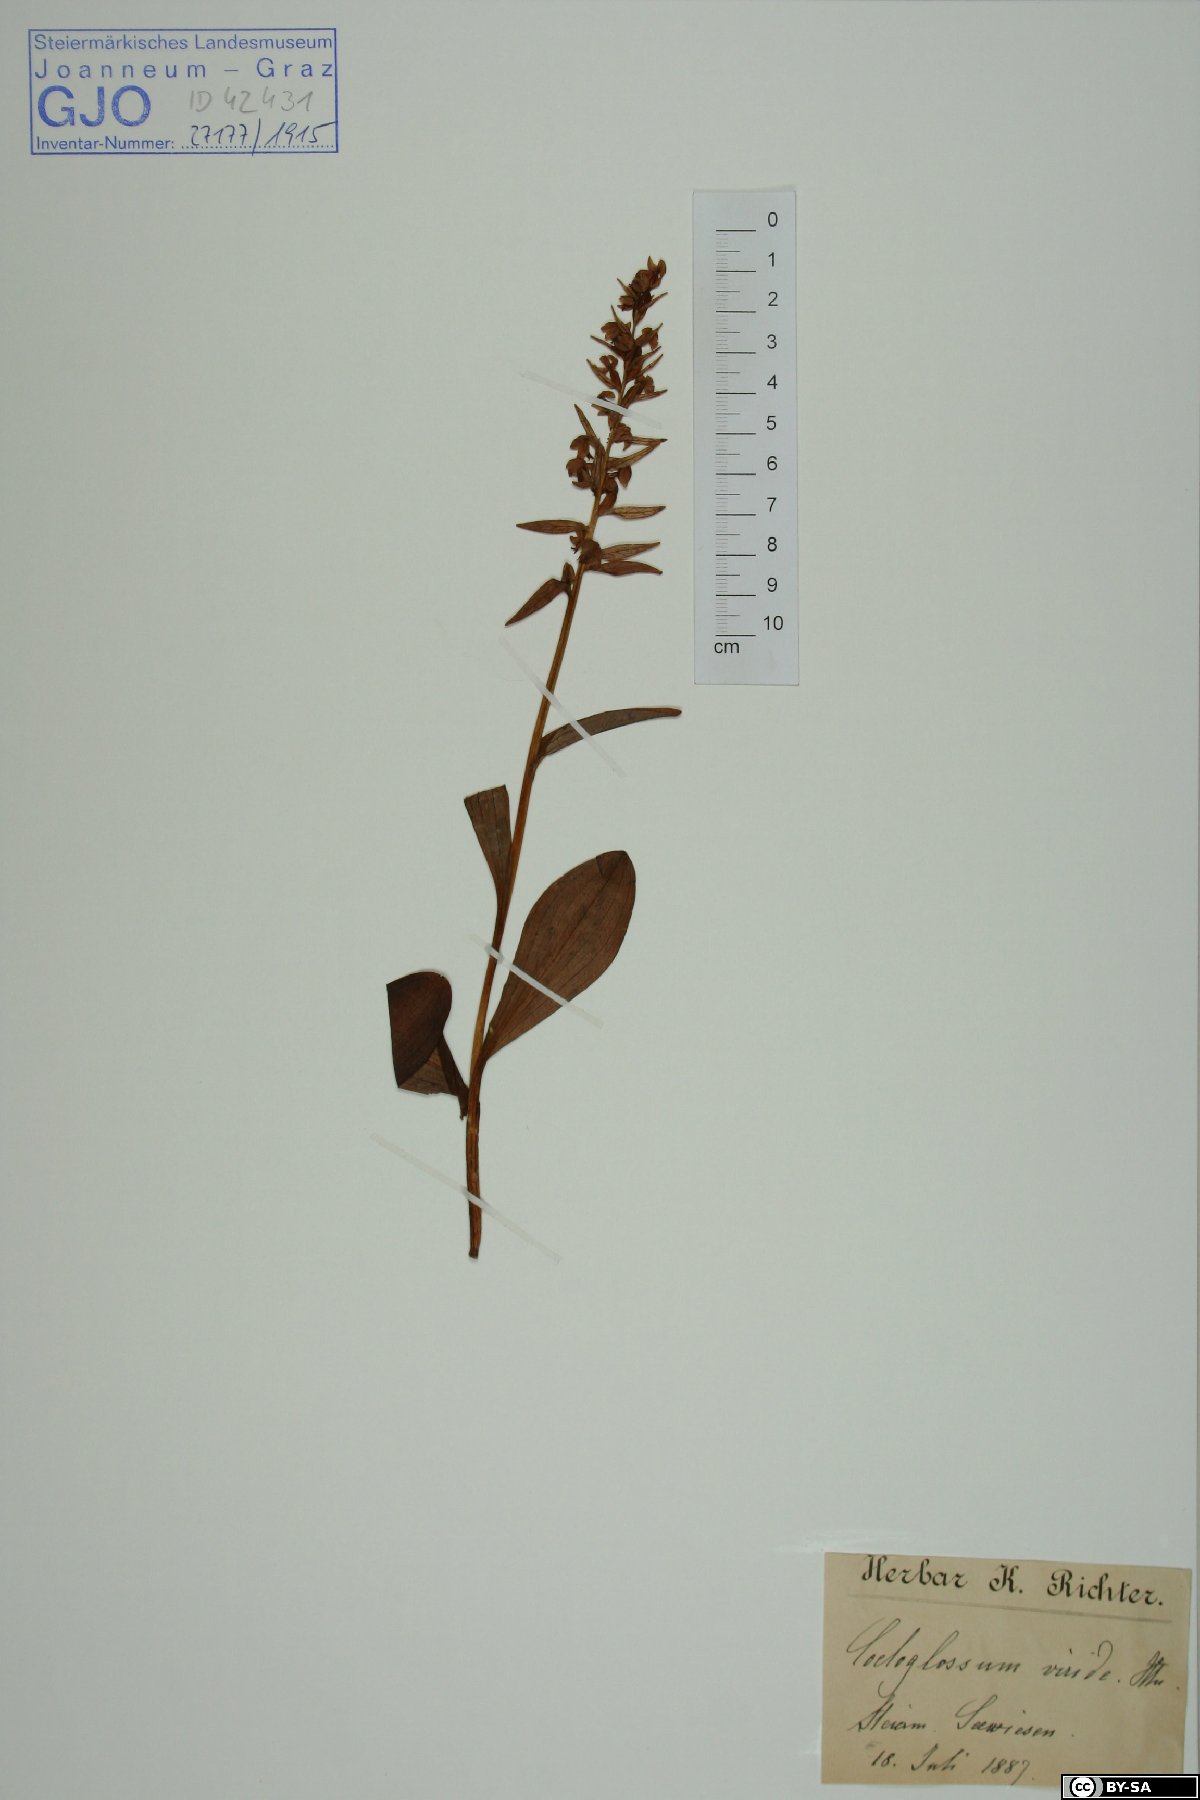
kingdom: Plantae
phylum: Tracheophyta
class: Liliopsida
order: Asparagales
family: Orchidaceae
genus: Dactylorhiza
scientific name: Dactylorhiza viridis
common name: Longbract frog orchid
